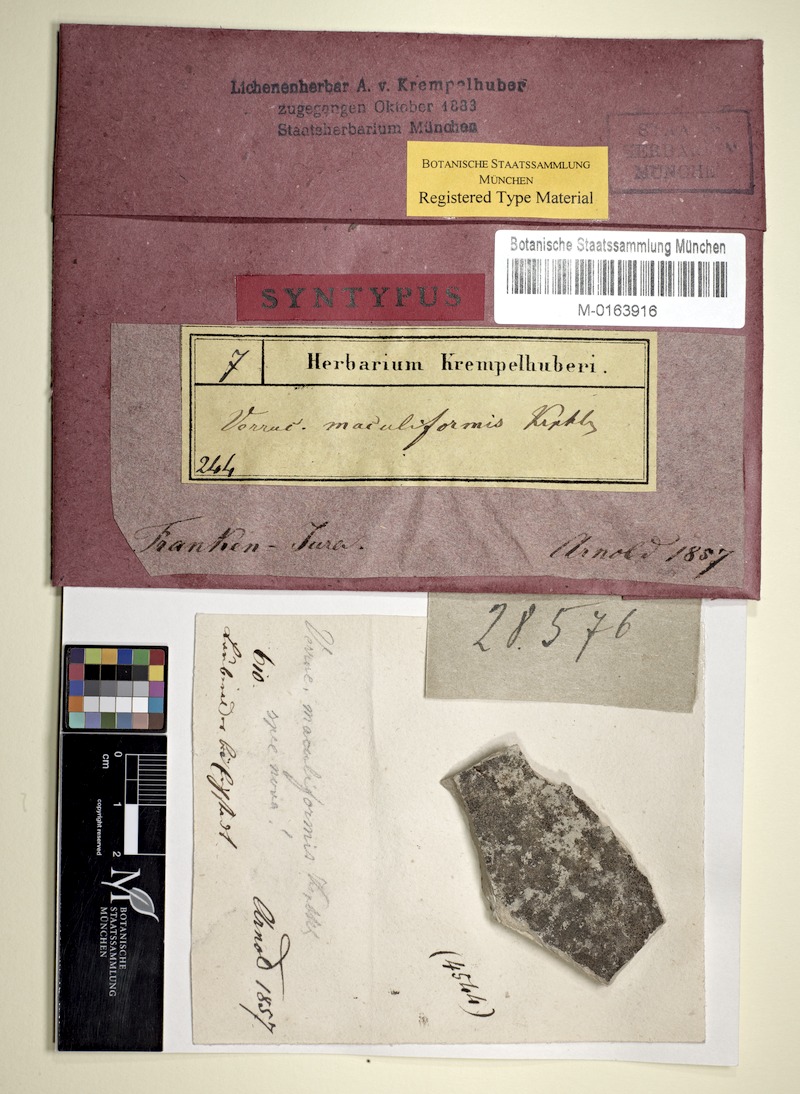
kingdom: Fungi
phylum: Ascomycota
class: Eurotiomycetes
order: Verrucariales
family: Verrucariaceae
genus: Verrucaria
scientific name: Verrucaria maculiformis
